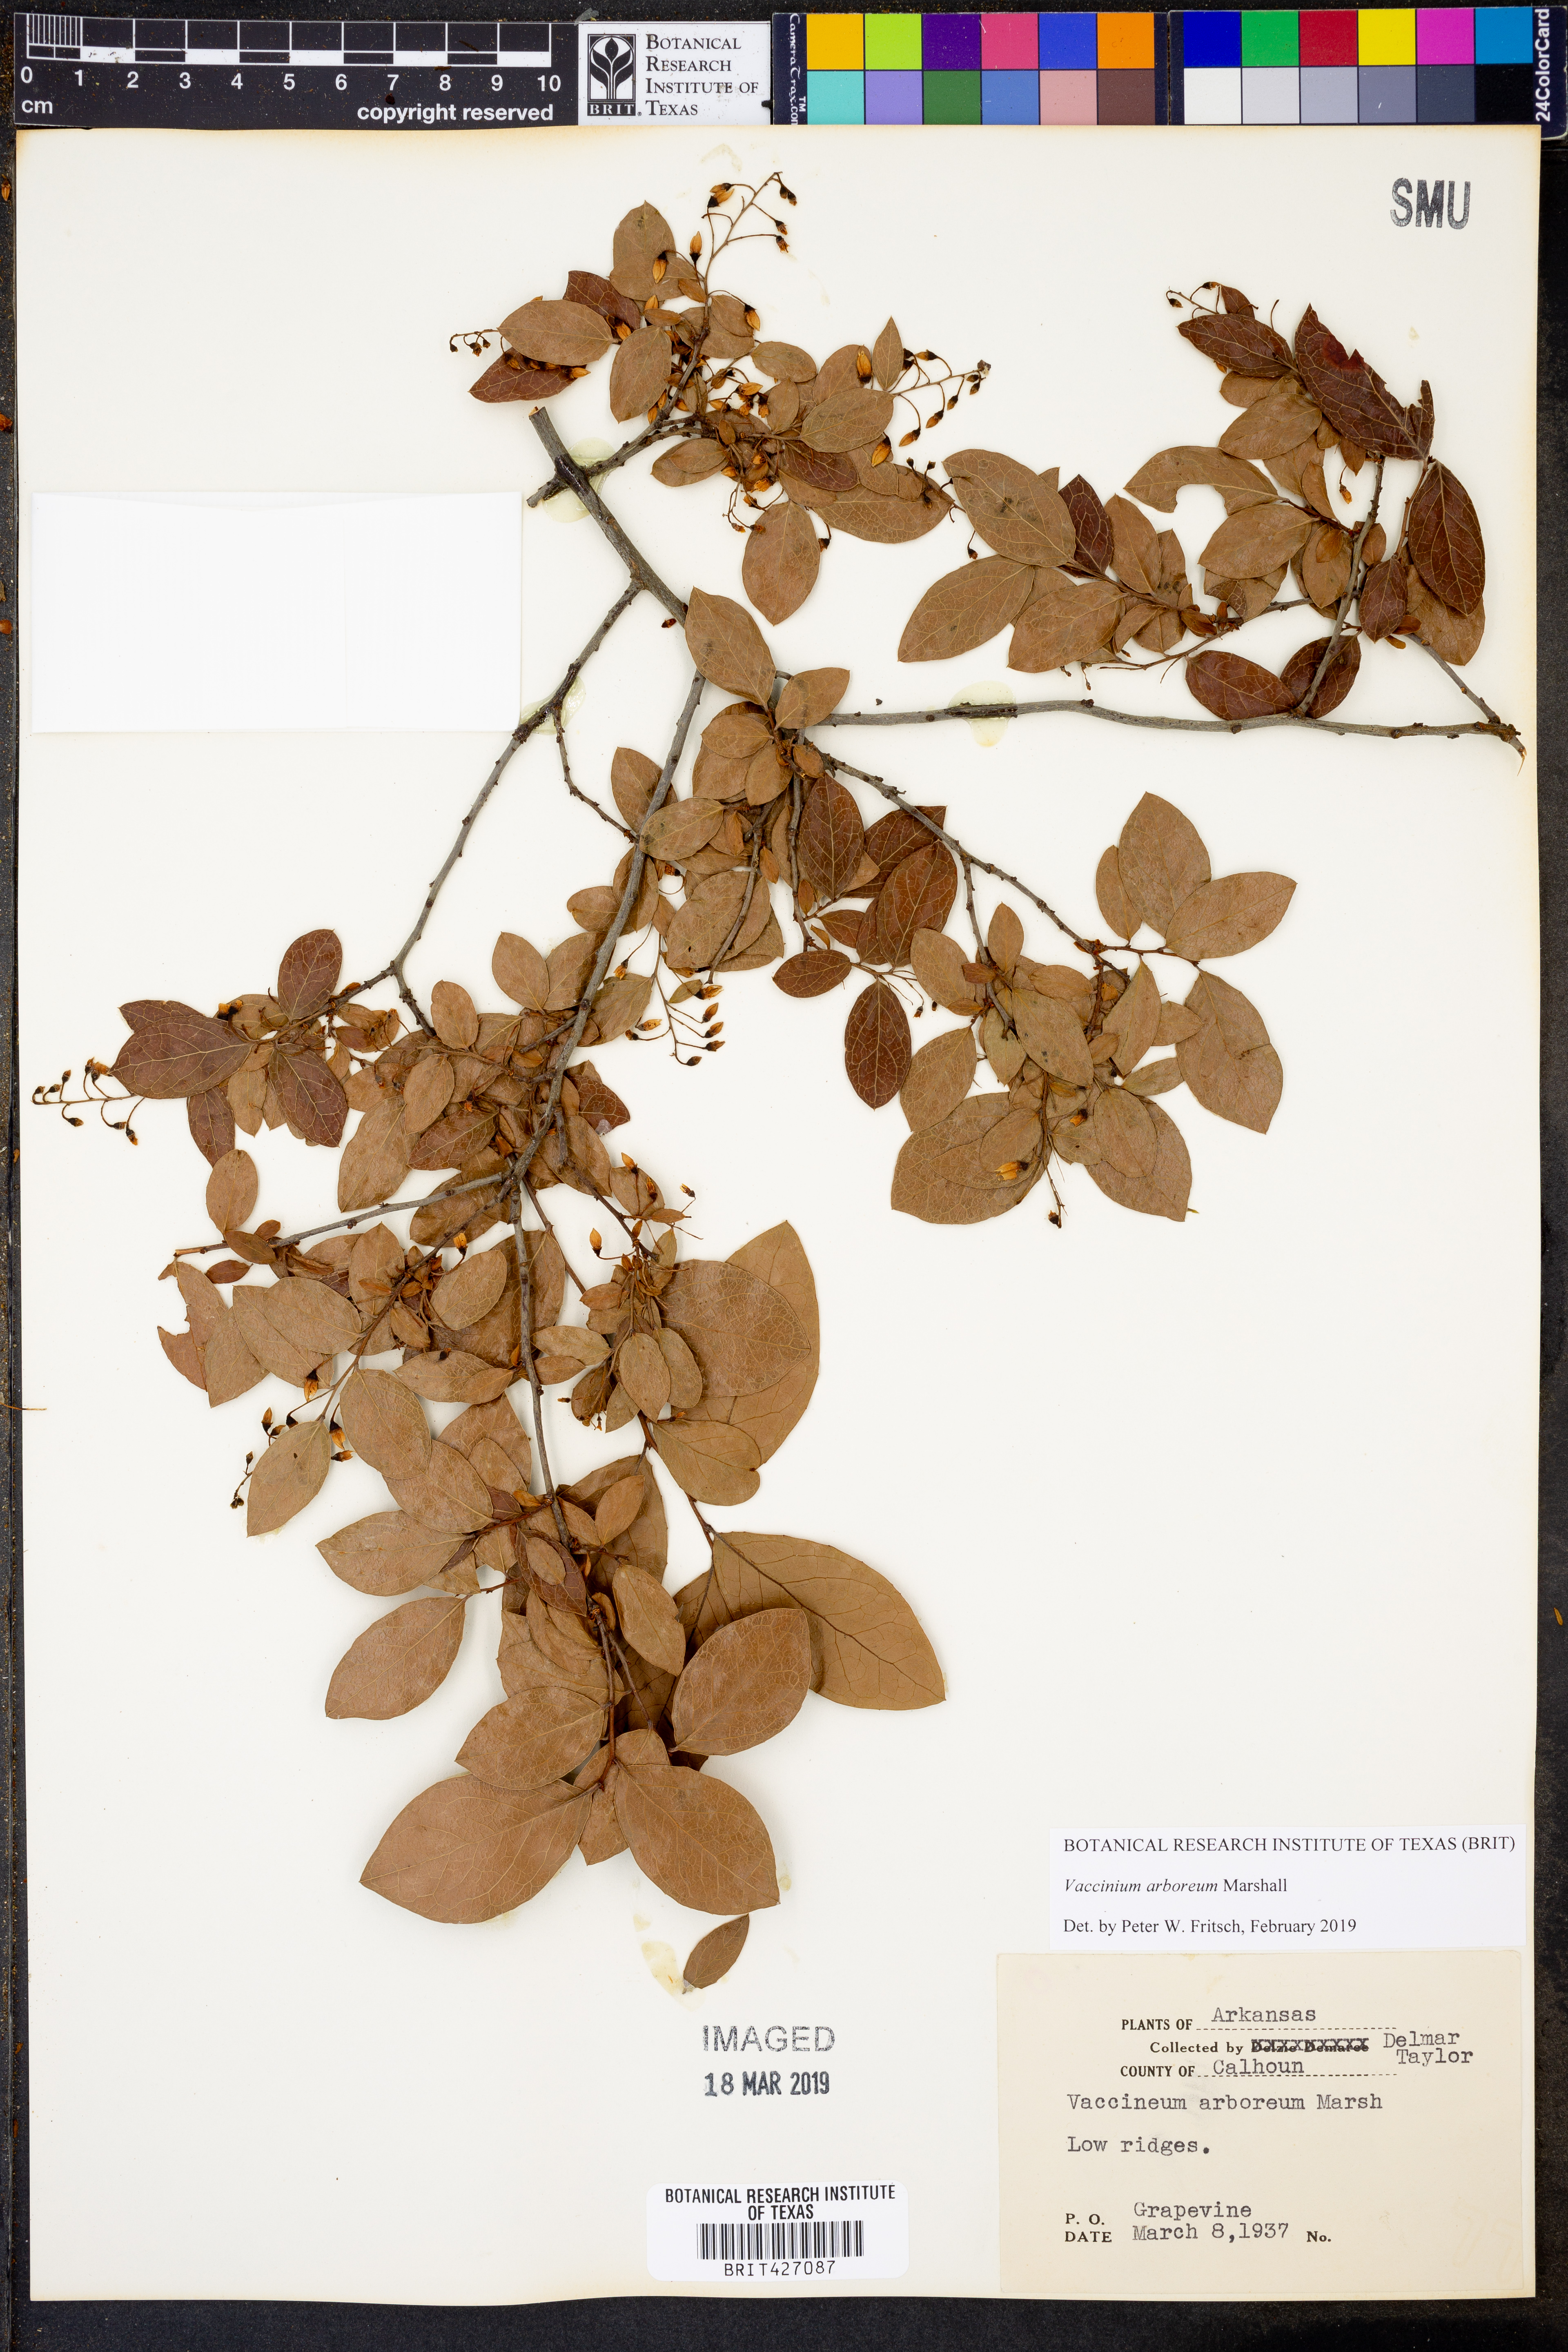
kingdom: Plantae
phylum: Tracheophyta
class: Magnoliopsida
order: Ericales
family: Ericaceae
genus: Vaccinium
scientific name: Vaccinium arboreum
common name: Farkleberry
